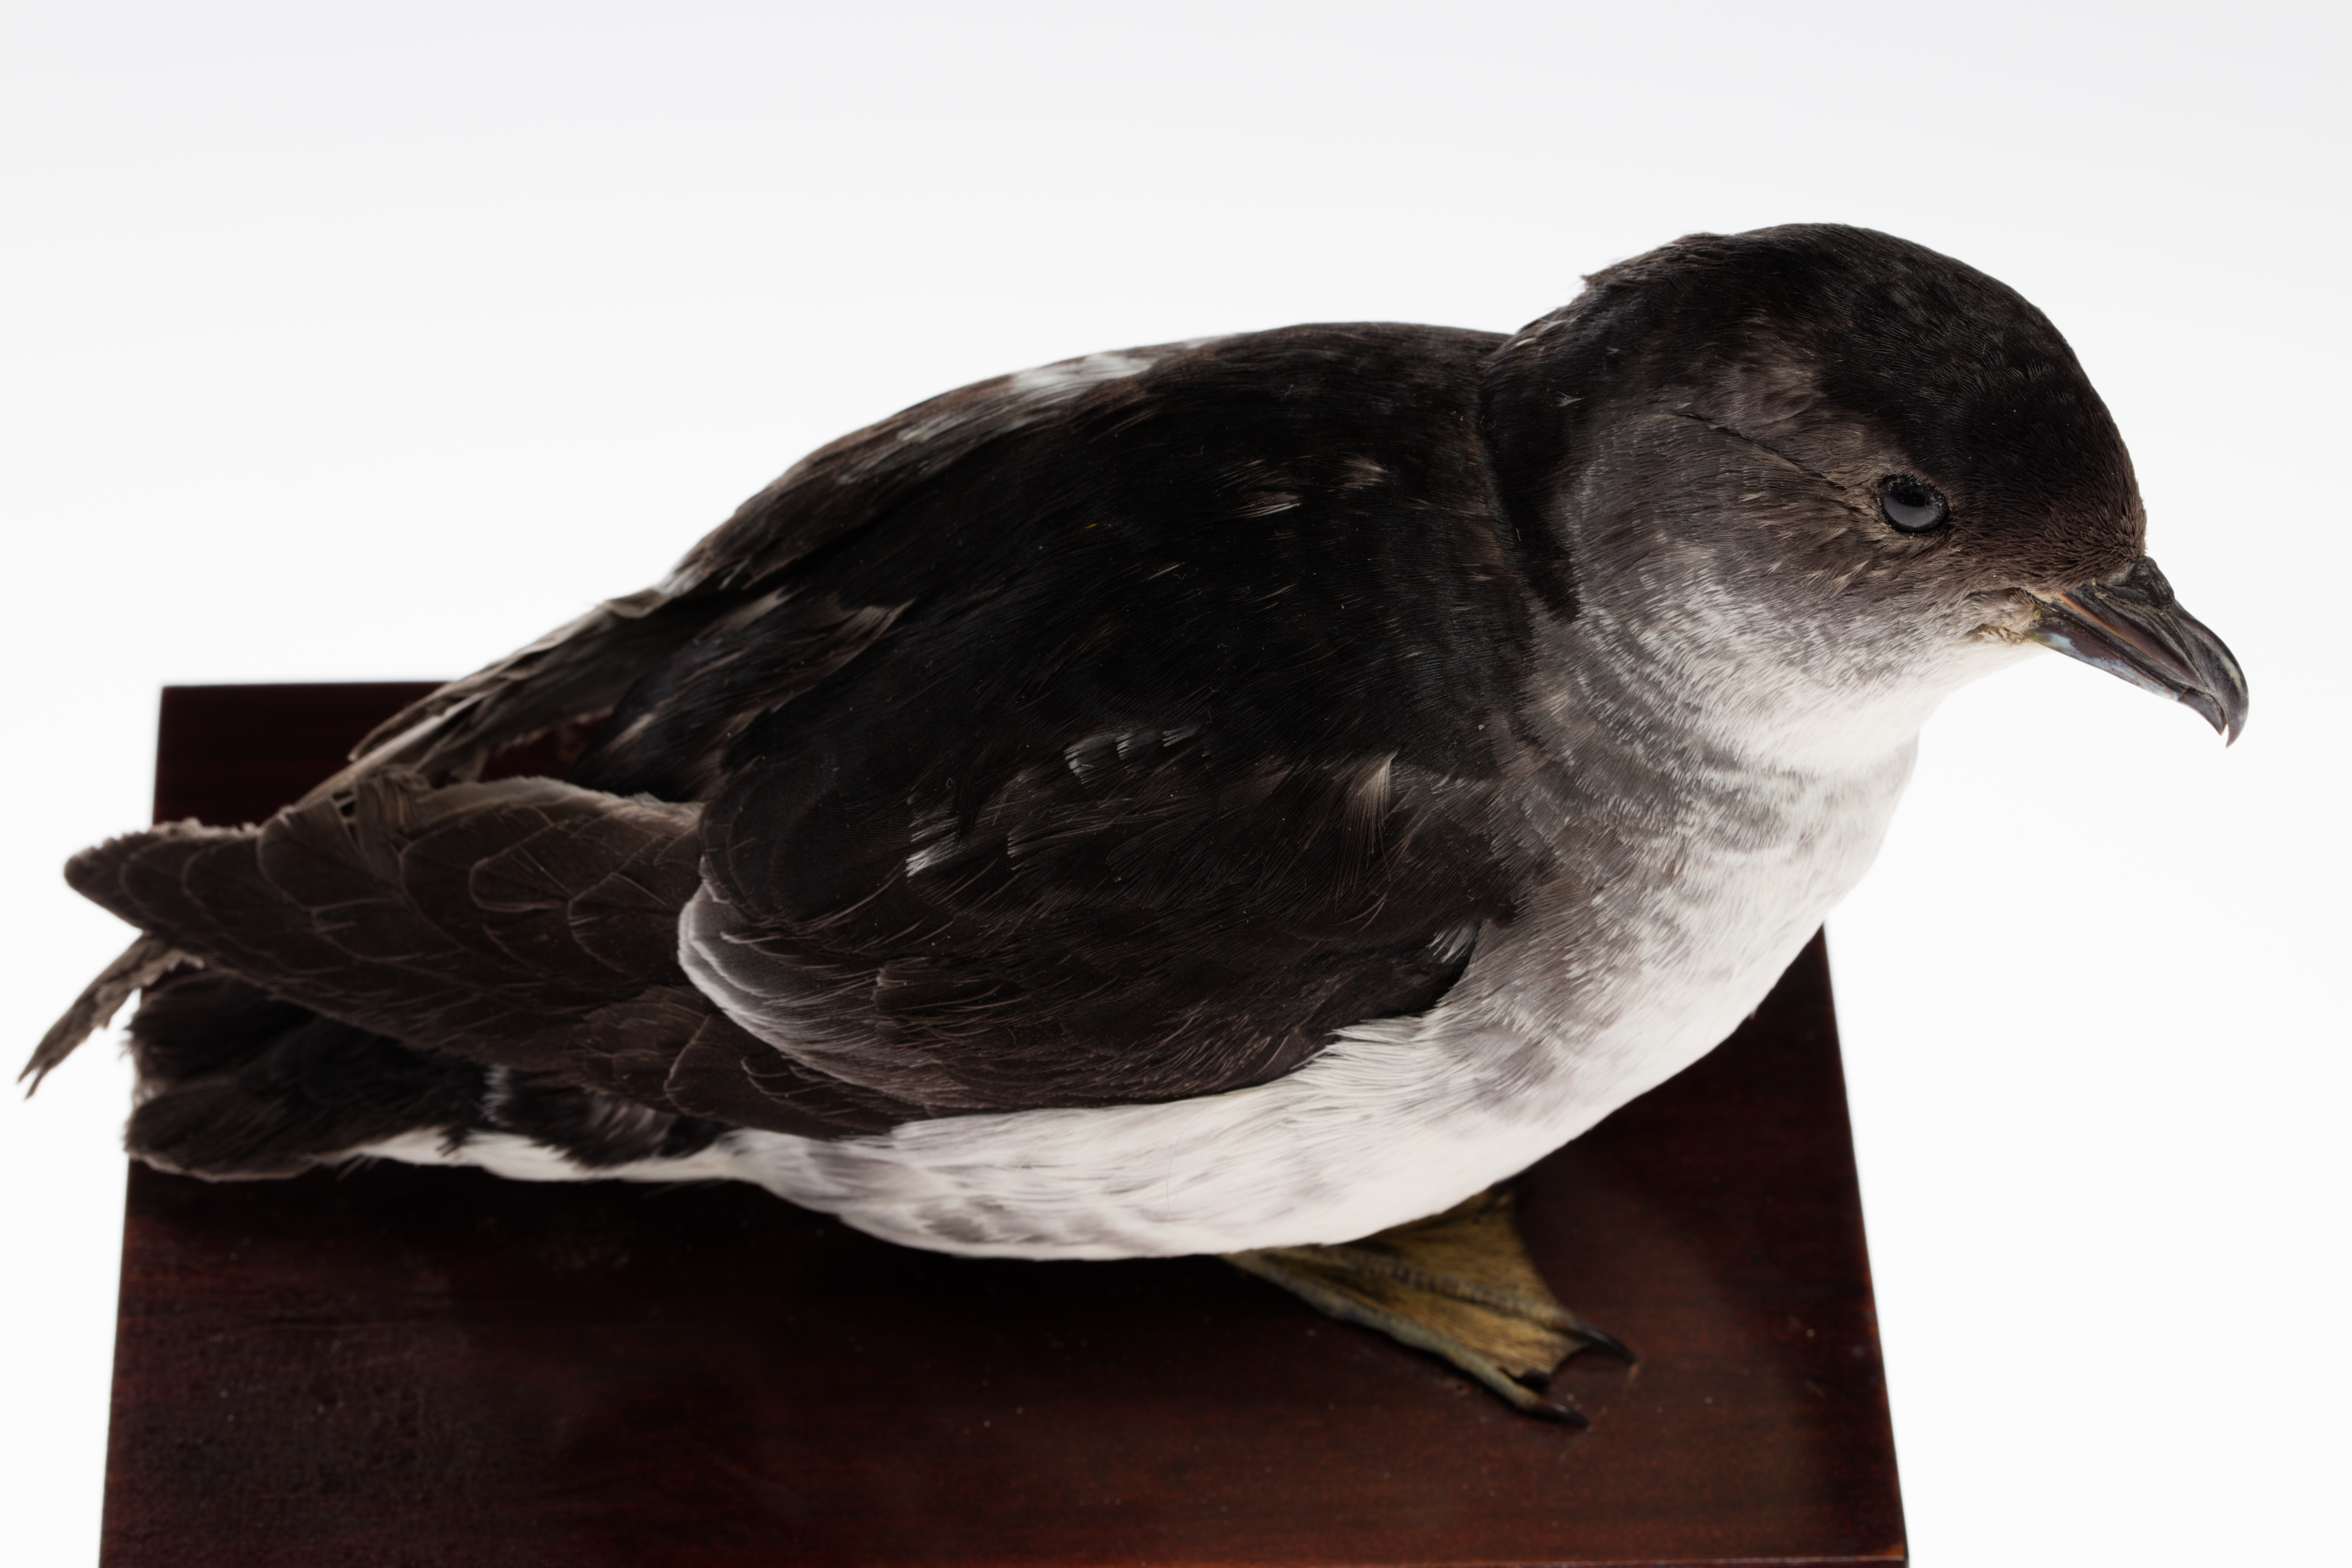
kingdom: Animalia
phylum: Chordata
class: Aves
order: Procellariiformes
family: Pelecanoididae
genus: Pelecanoides
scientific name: Pelecanoides urinatrix
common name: Common diving-petrel
